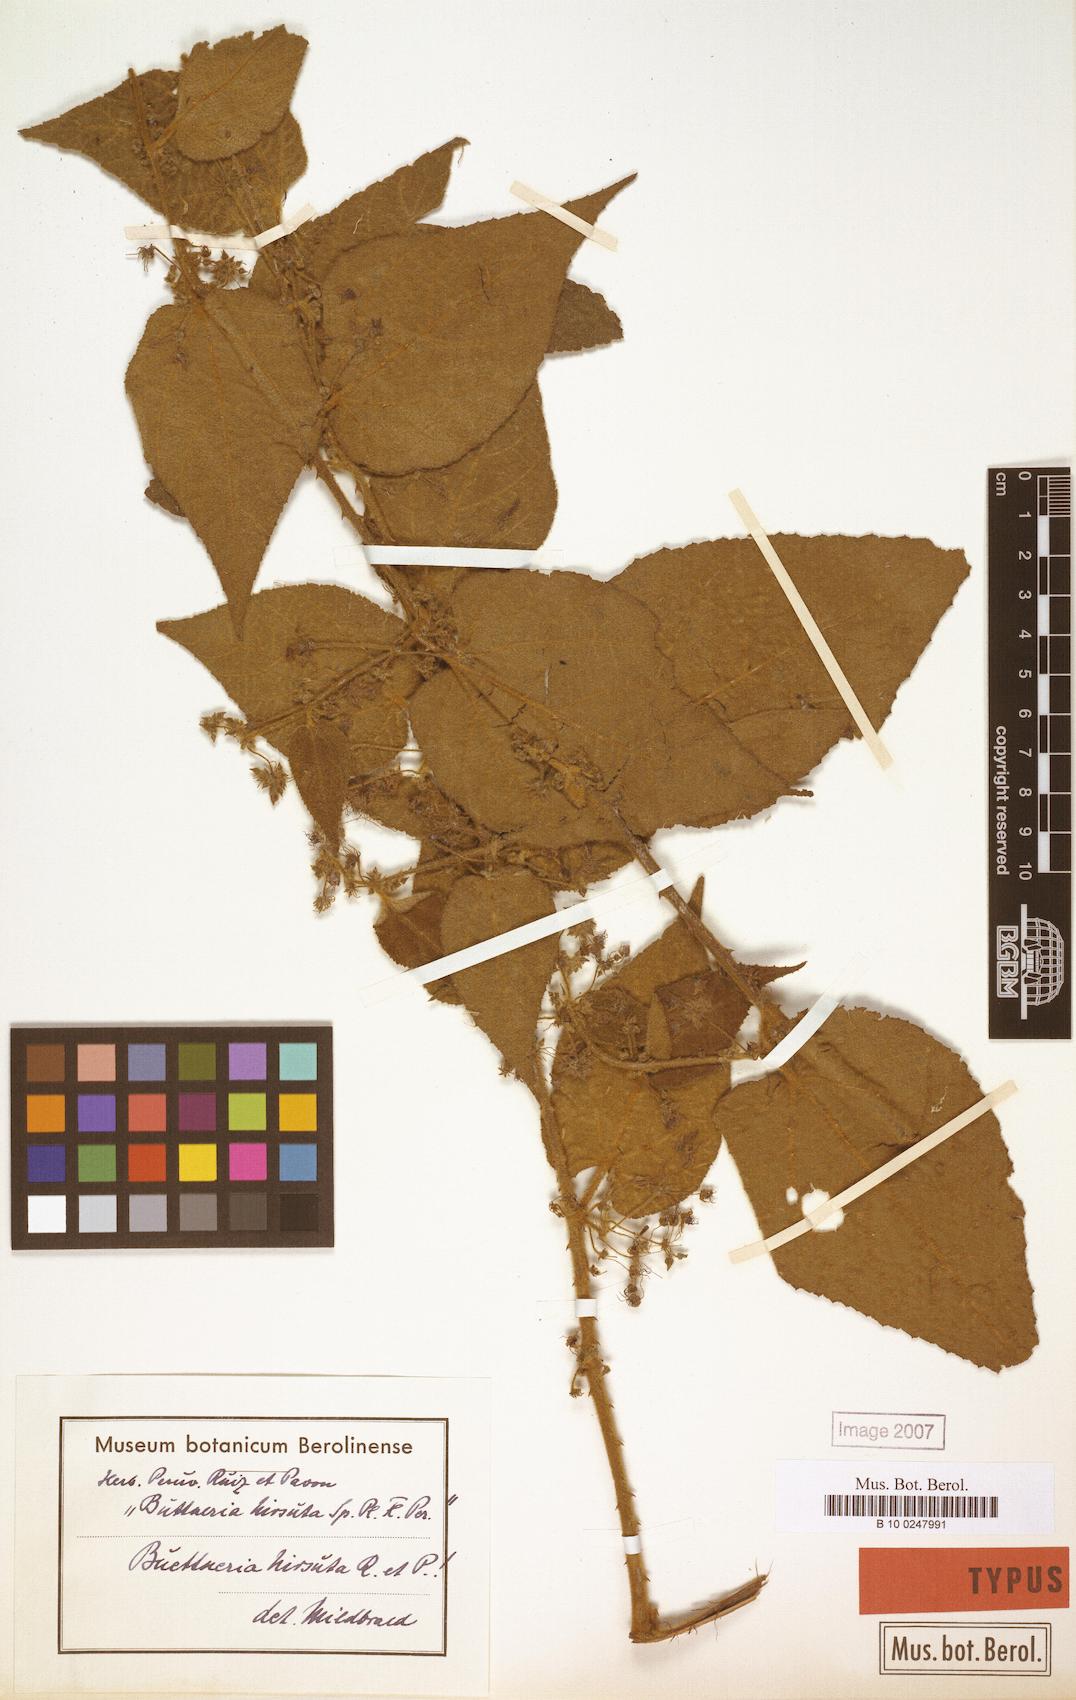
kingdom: Plantae
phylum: Tracheophyta
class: Magnoliopsida
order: Malvales
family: Malvaceae
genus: Byttneria
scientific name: Byttneria hirsuta
